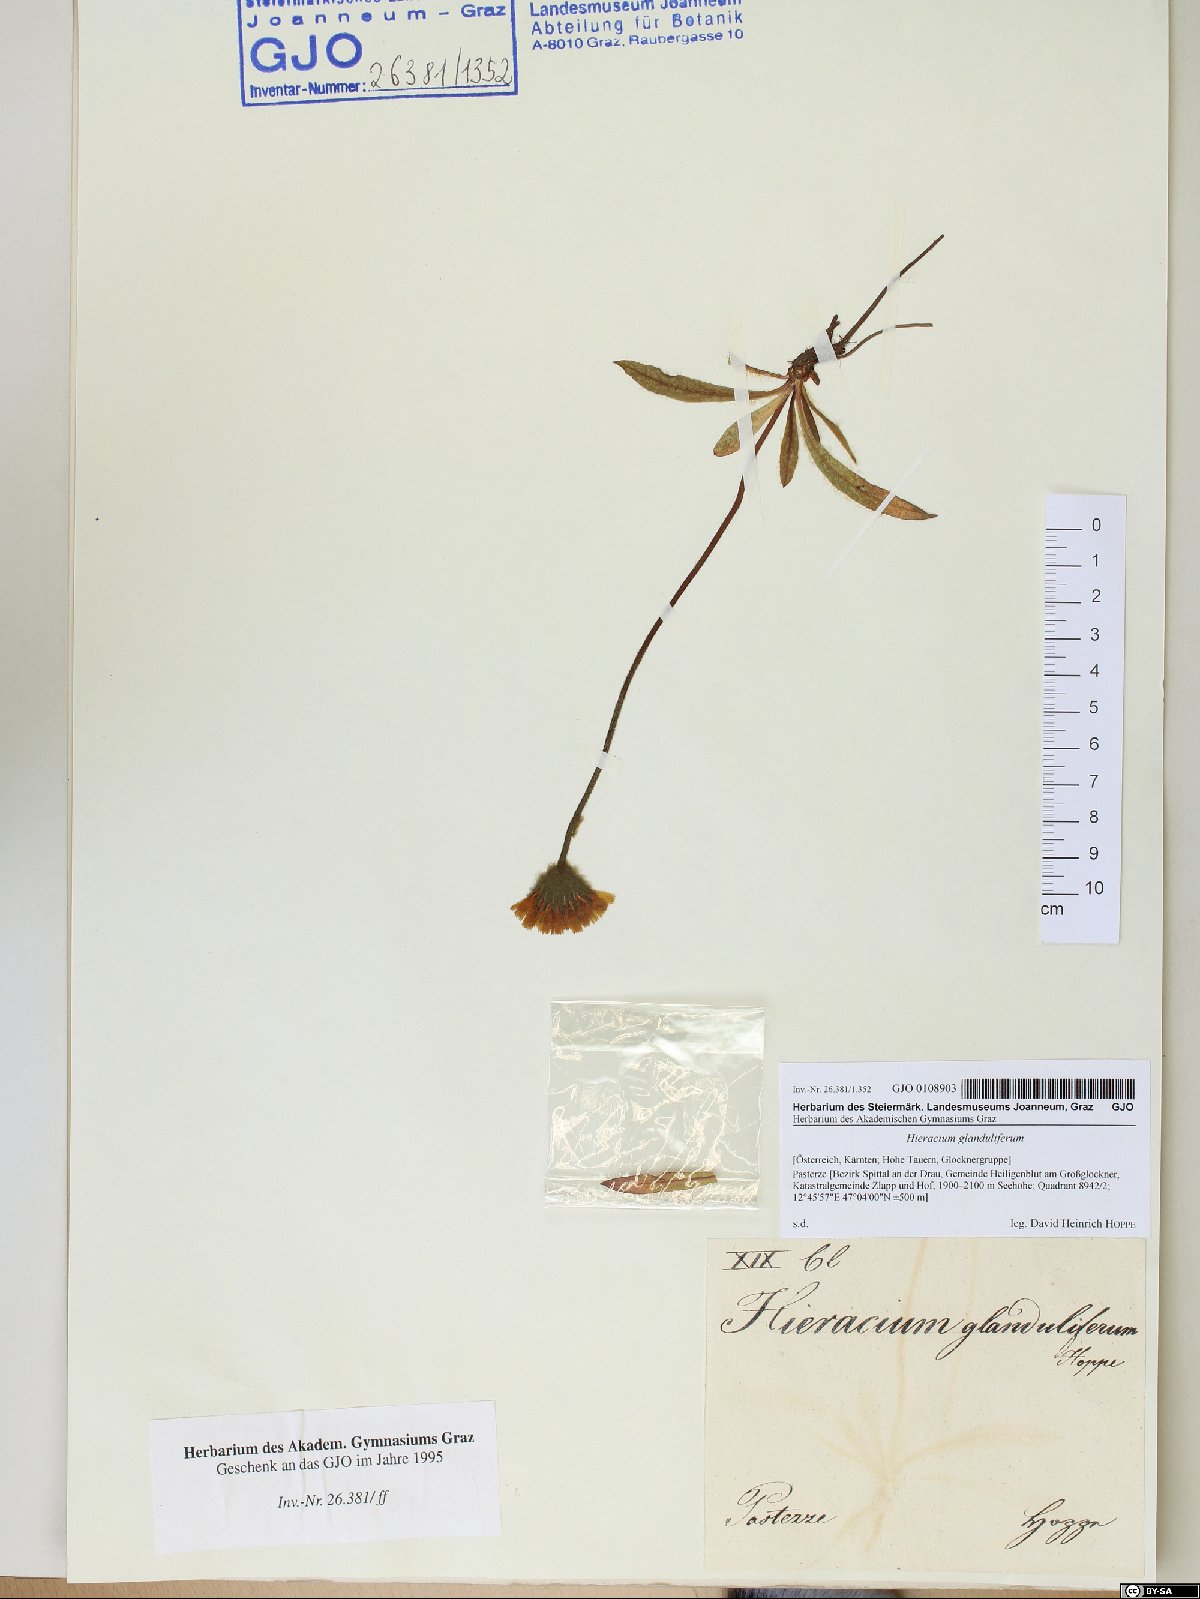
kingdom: Plantae
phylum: Tracheophyta
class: Magnoliopsida
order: Asterales
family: Asteraceae
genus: Hieracium
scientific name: Hieracium piliferum
